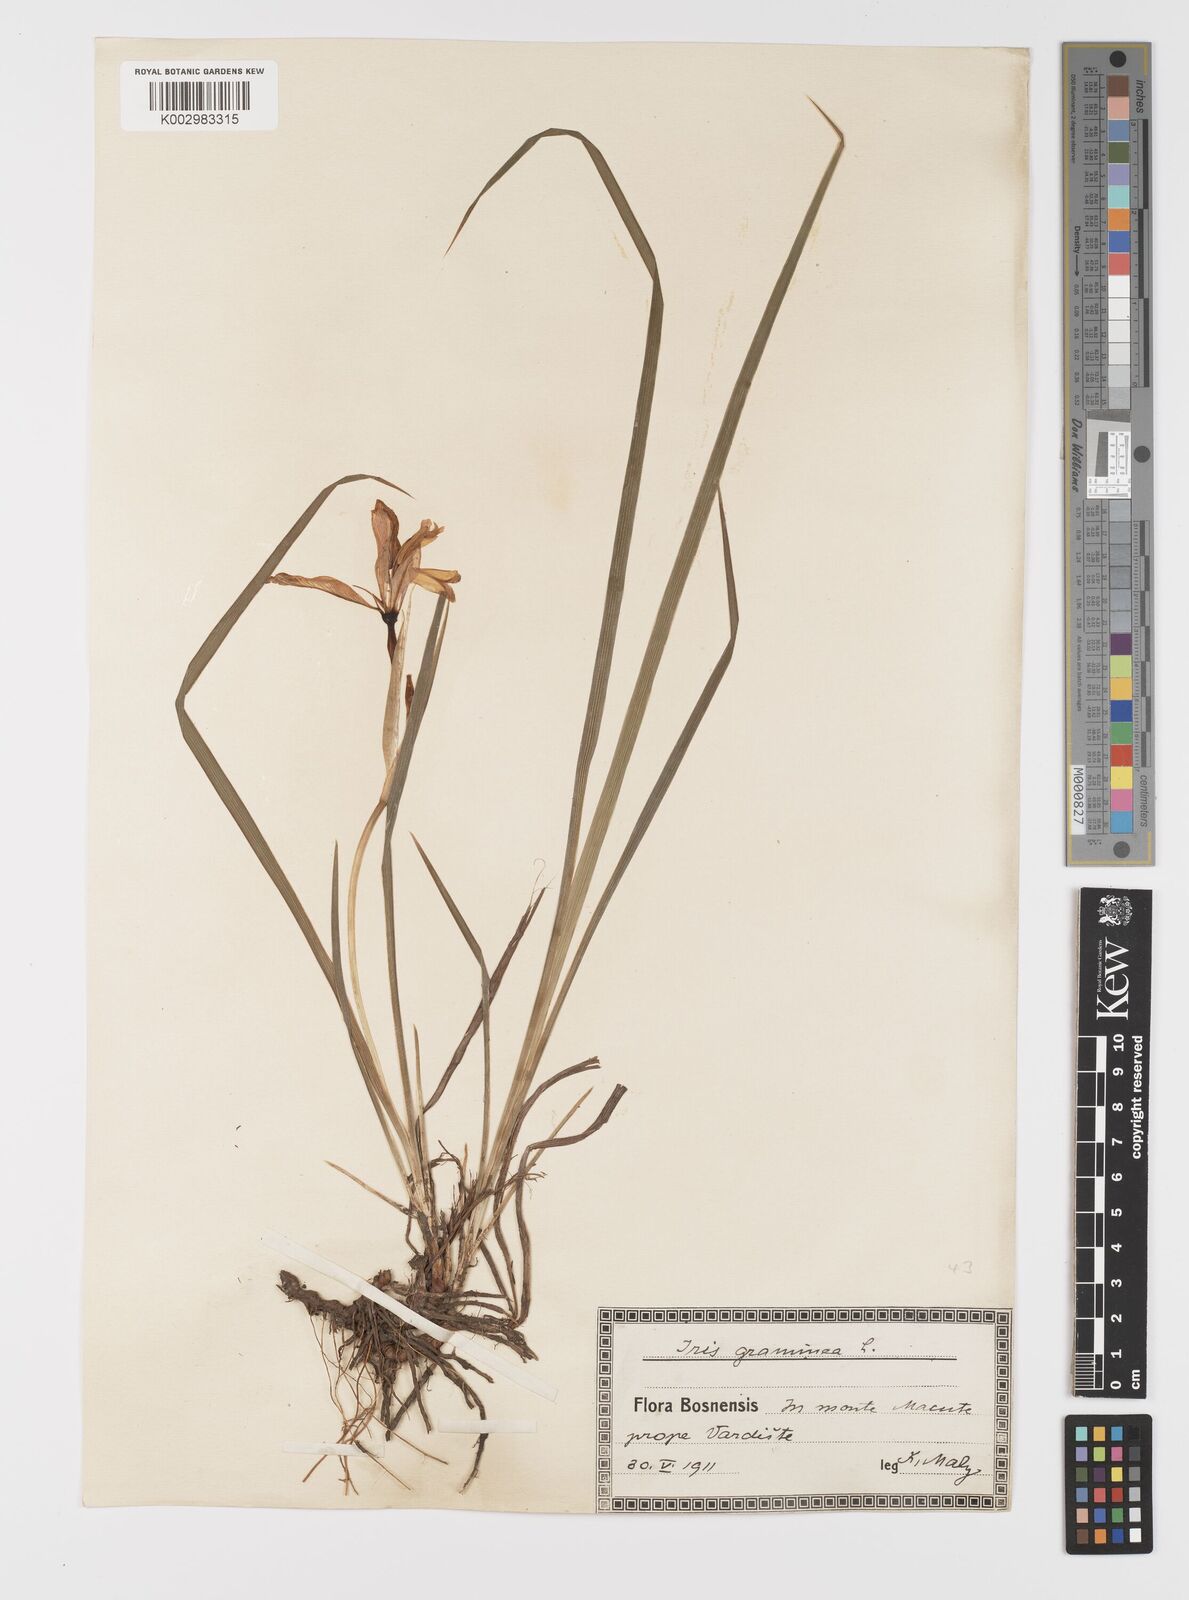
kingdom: Plantae
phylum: Tracheophyta
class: Liliopsida
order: Asparagales
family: Iridaceae
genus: Iris
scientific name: Iris graminea
